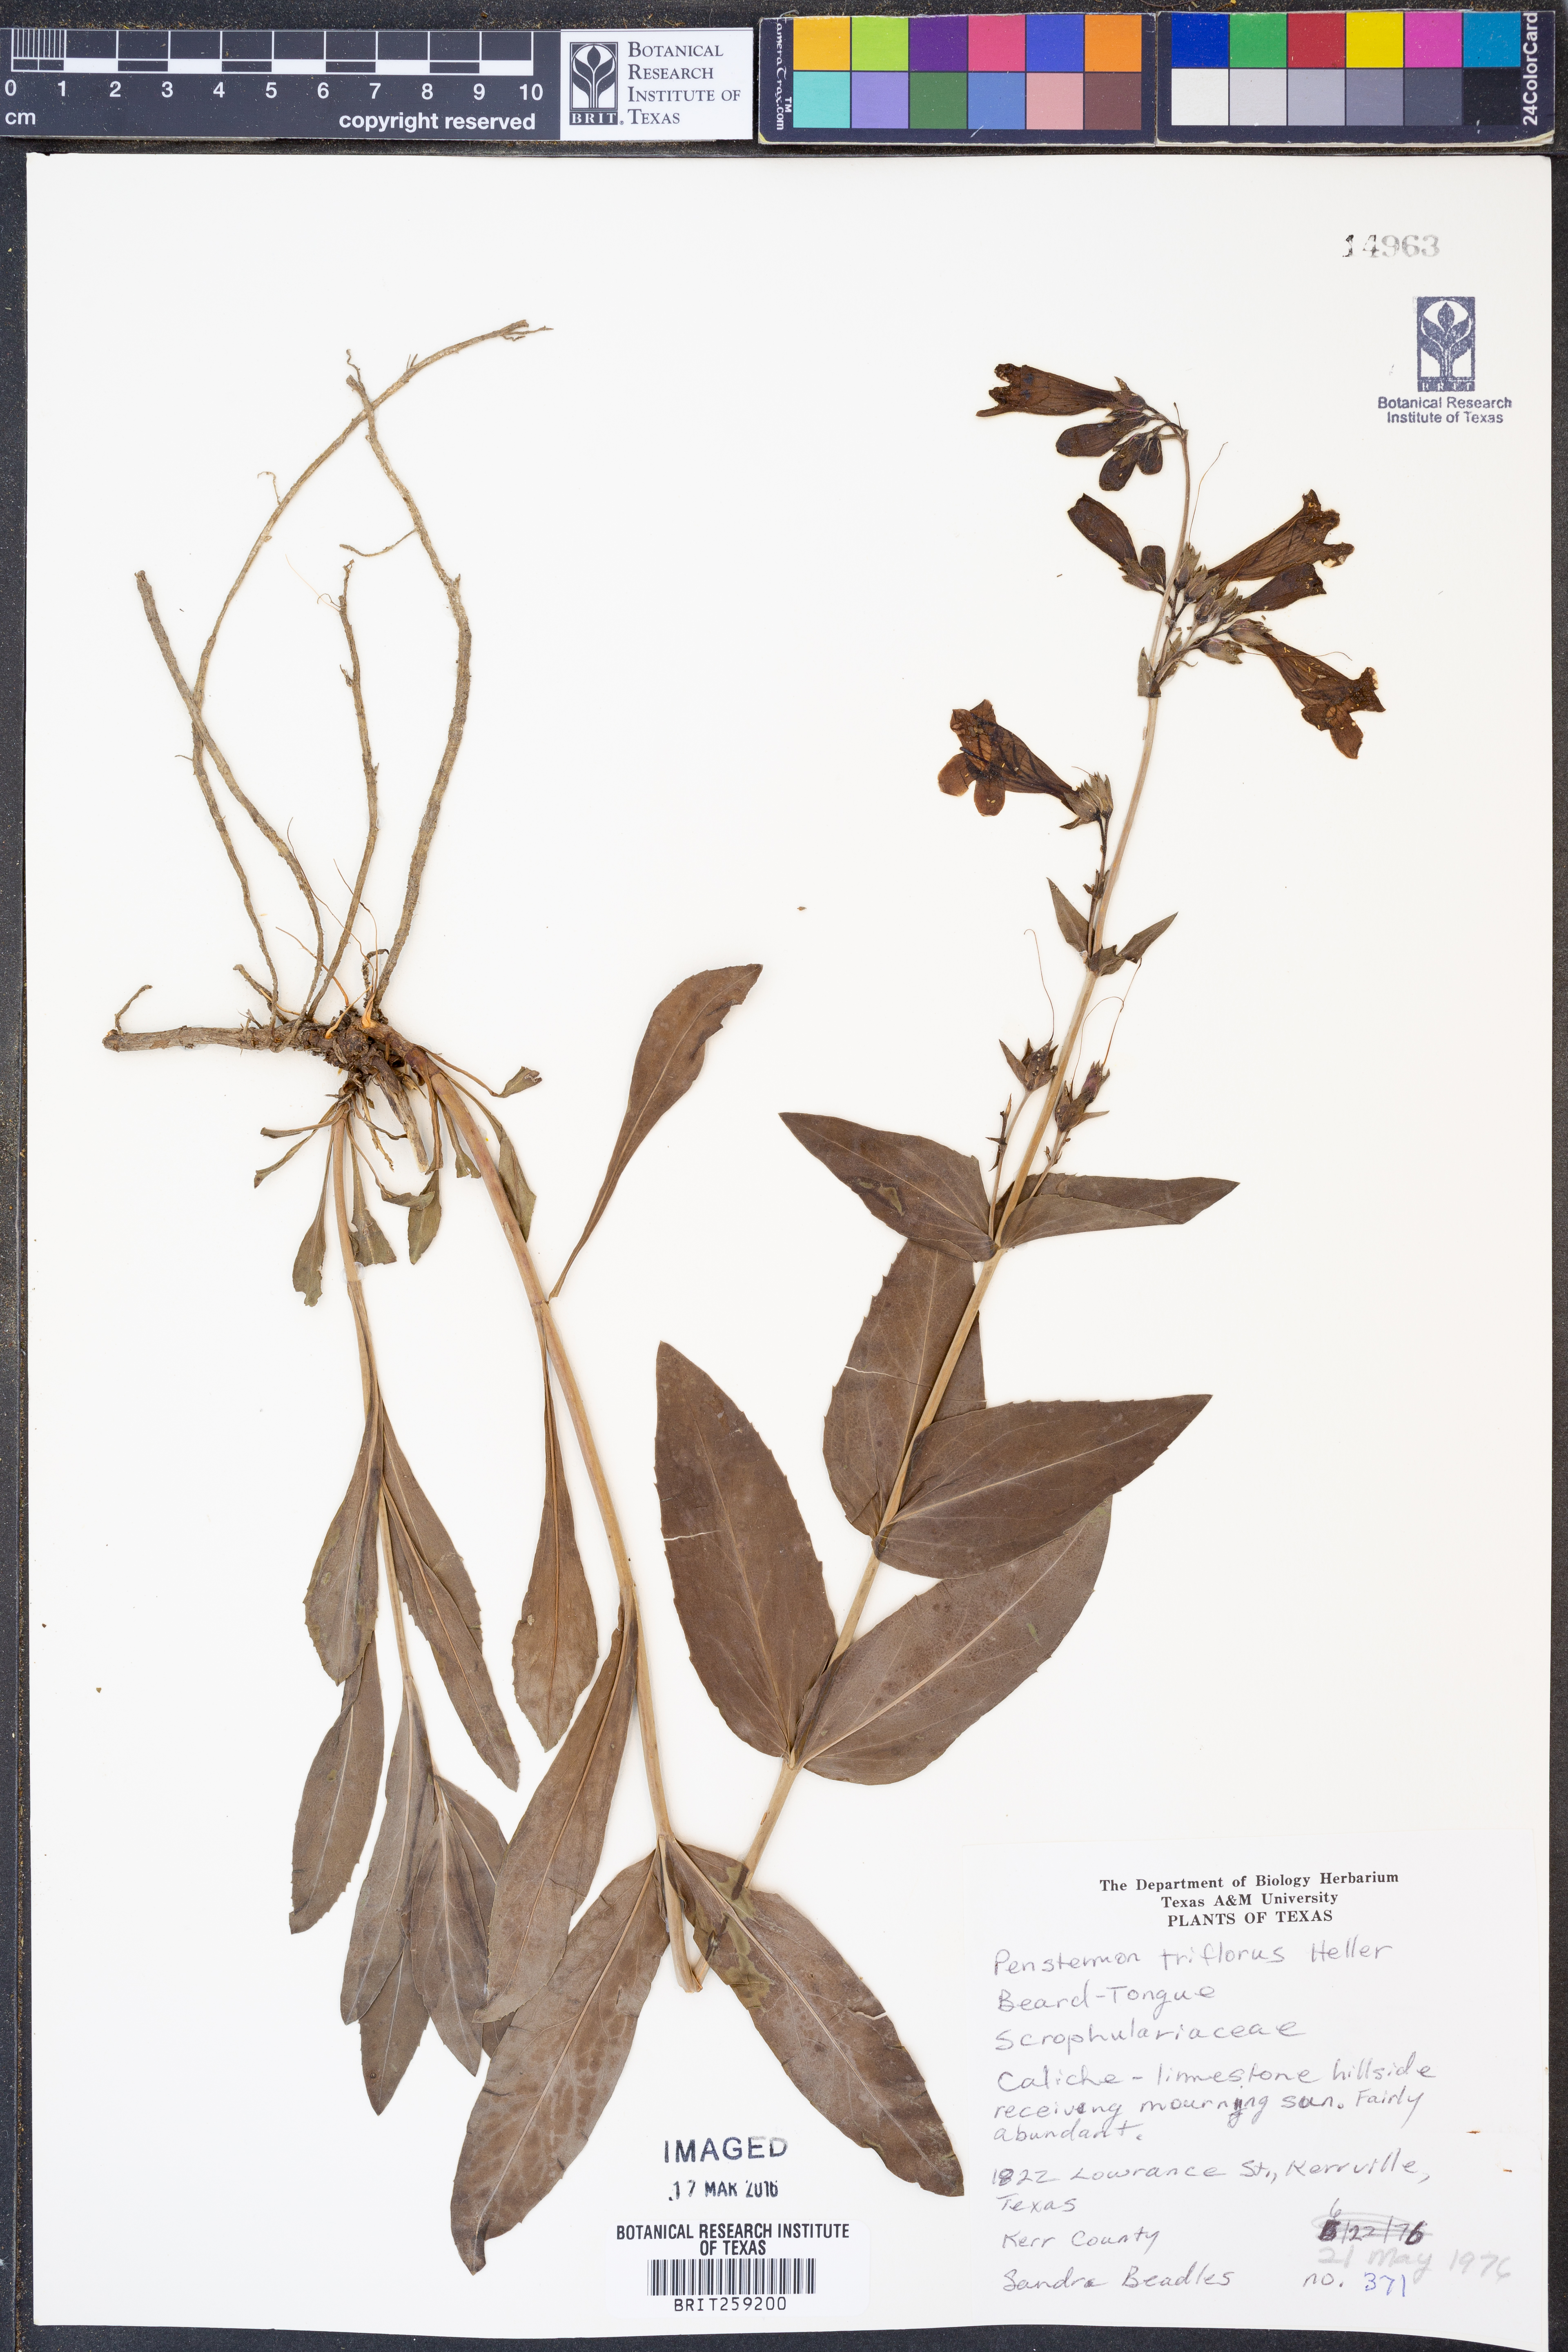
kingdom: Plantae
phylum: Tracheophyta
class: Magnoliopsida
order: Lamiales
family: Plantaginaceae
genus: Penstemon
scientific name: Penstemon triflorus
